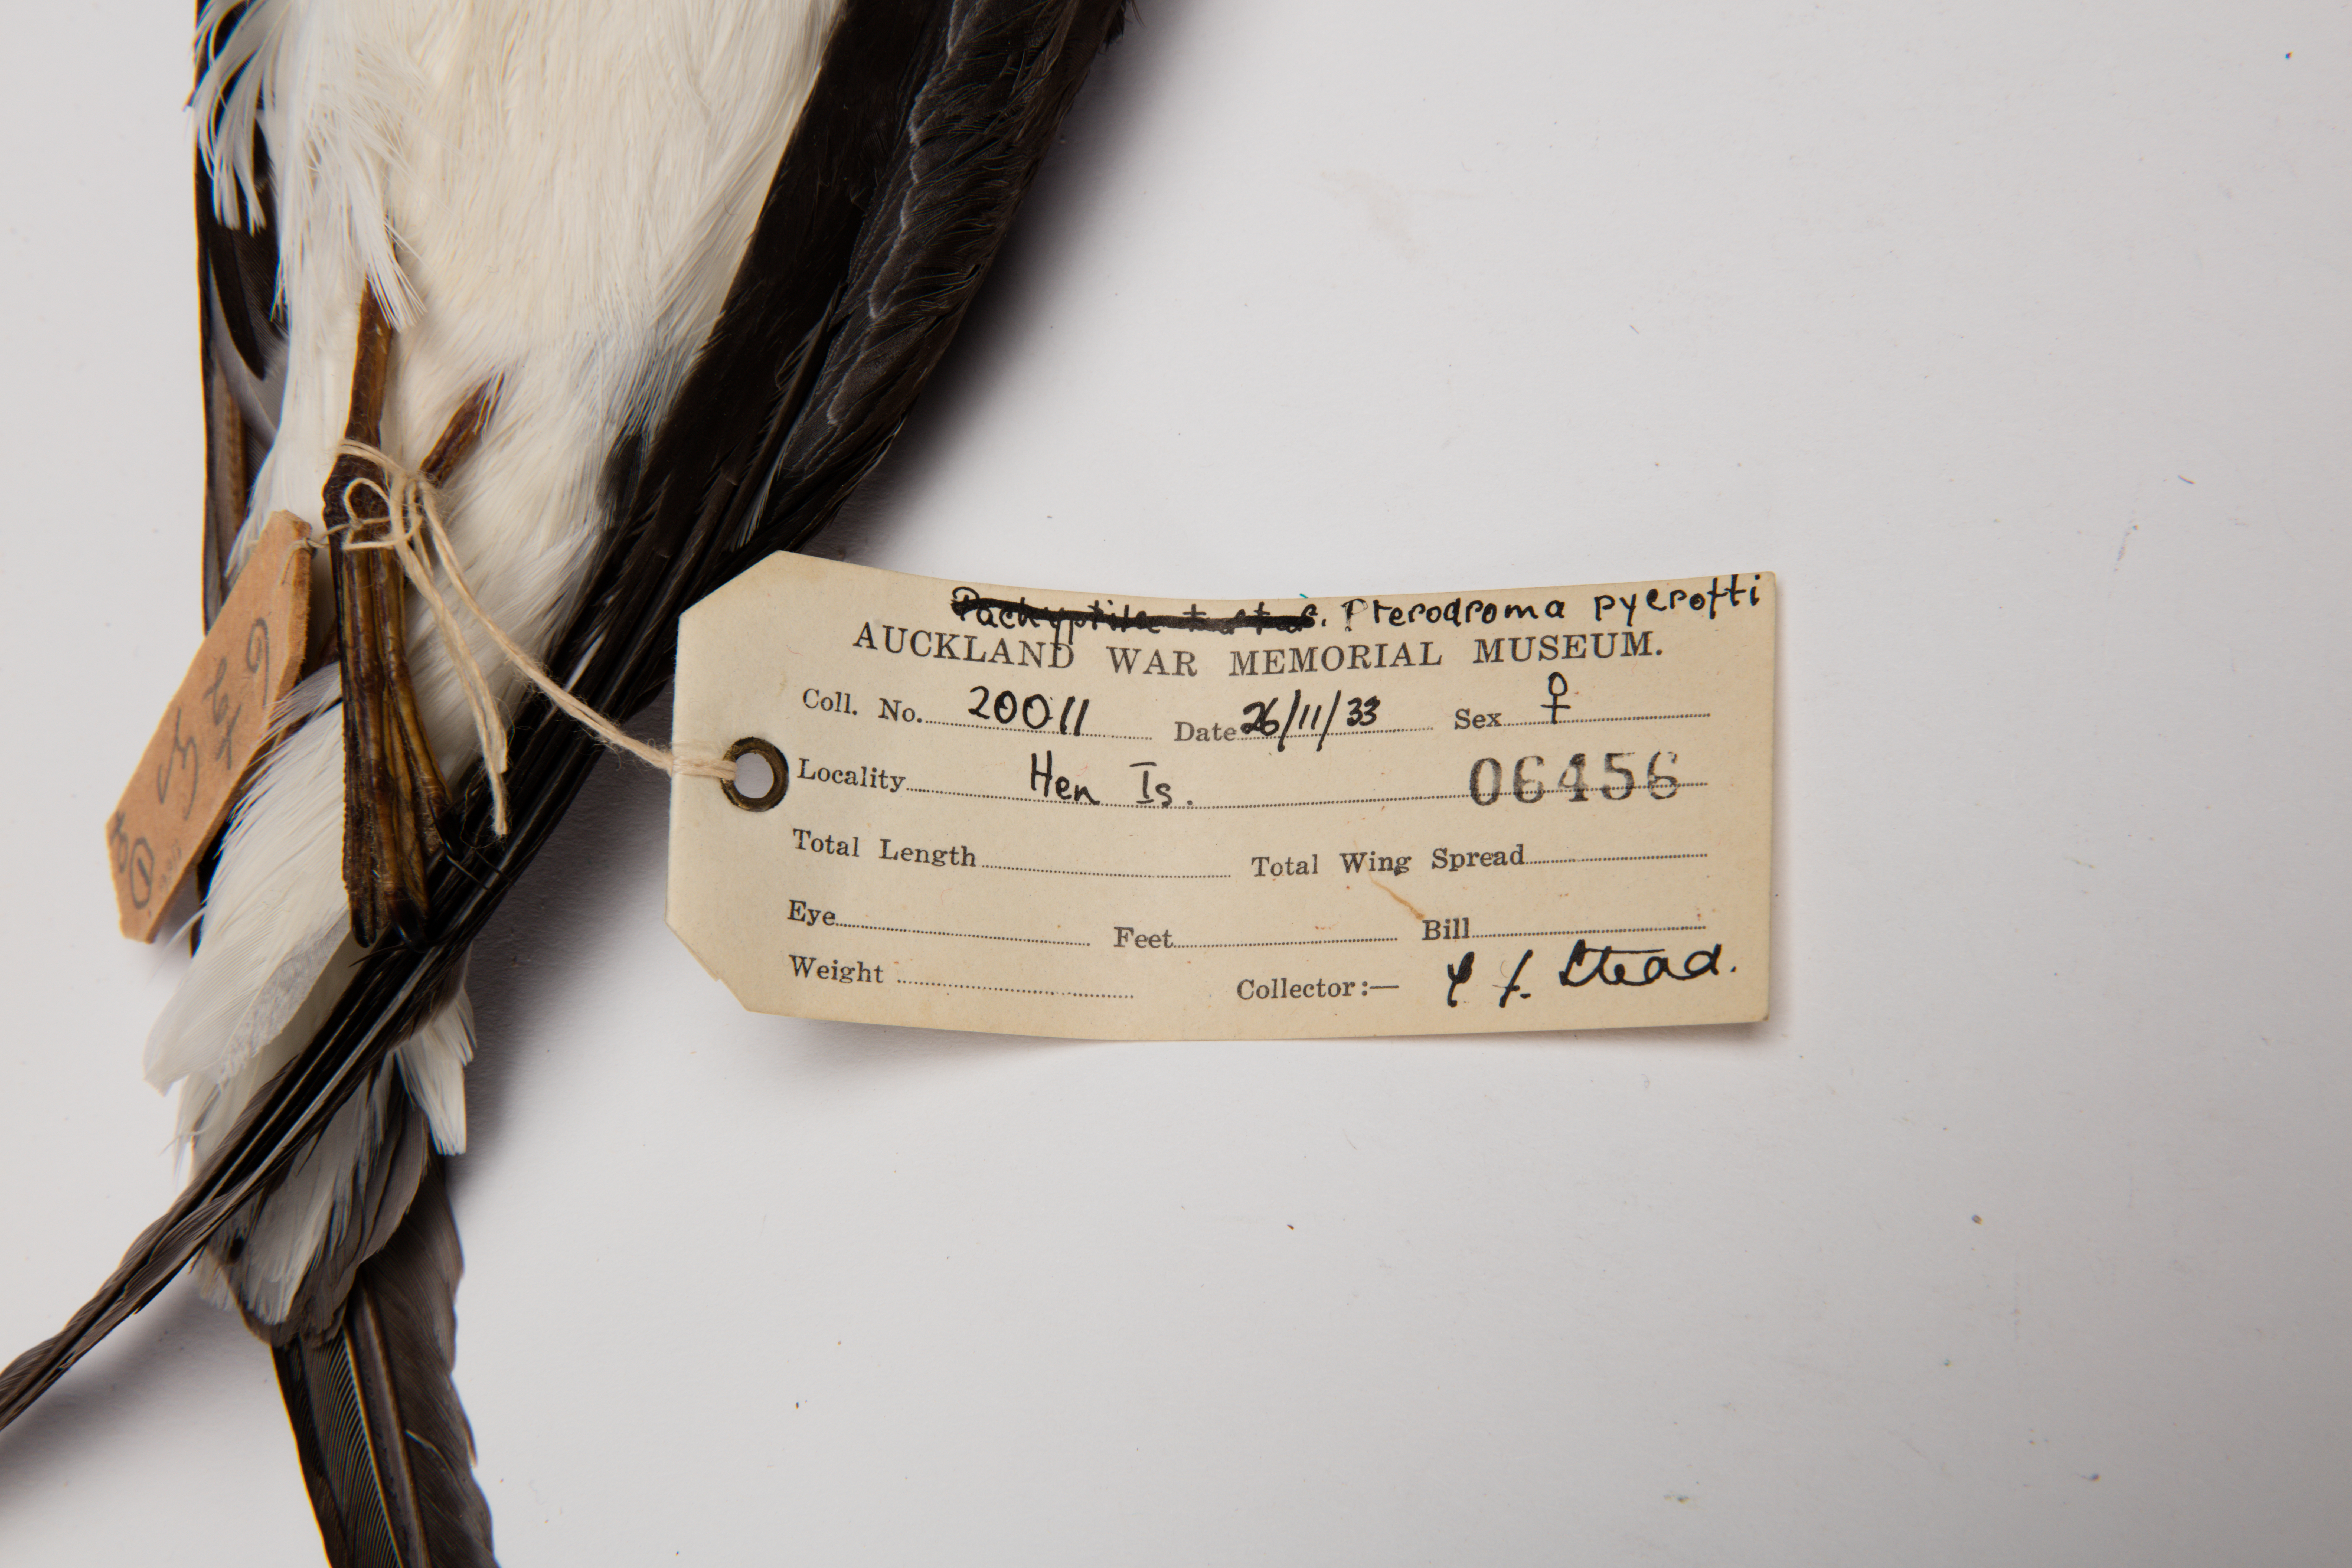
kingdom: Animalia
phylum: Chordata
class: Aves
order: Procellariiformes
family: Procellariidae
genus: Pterodroma
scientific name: Pterodroma pycrofti
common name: Pycroft's petrel
